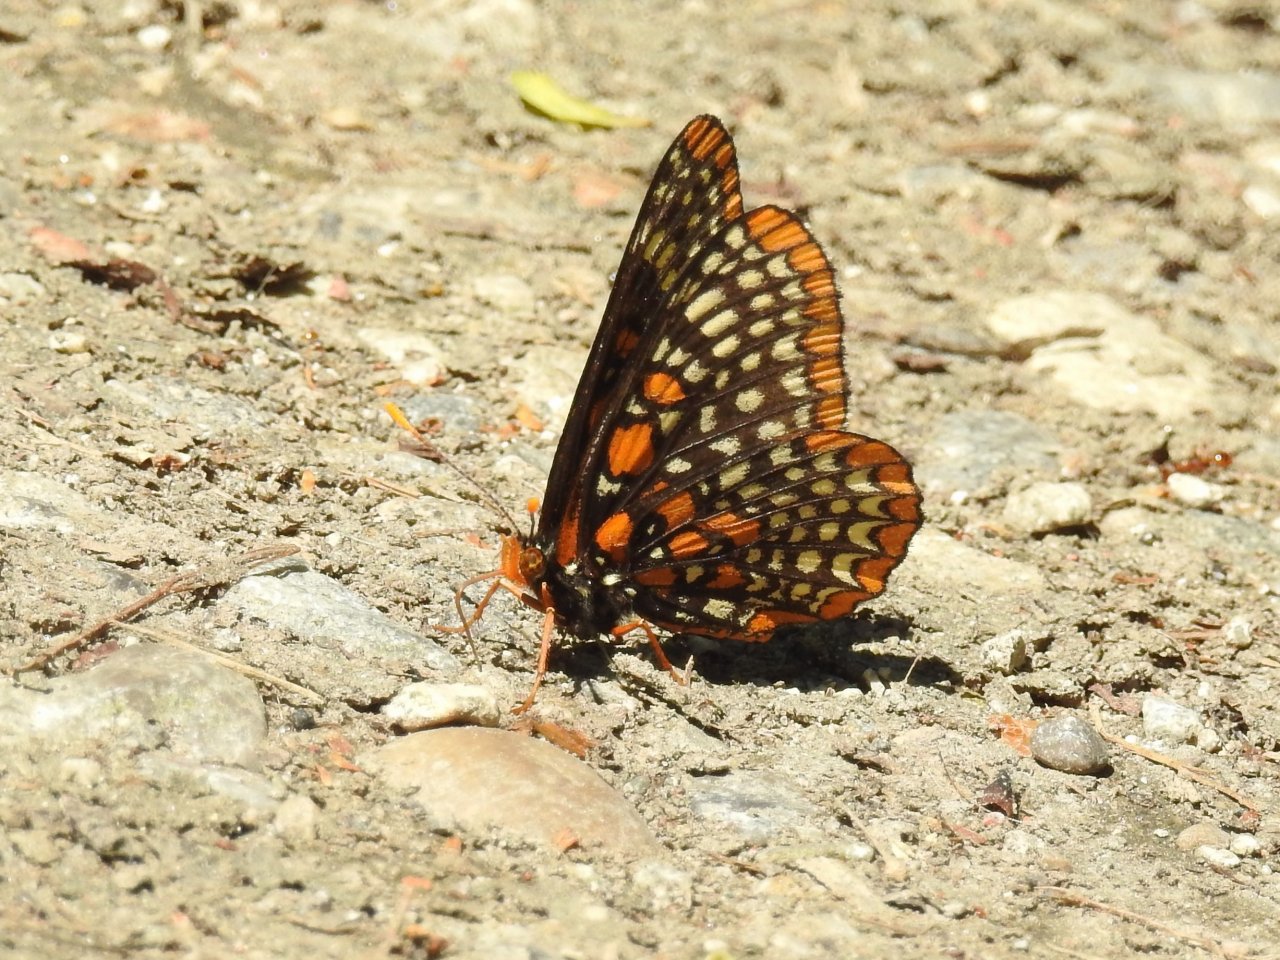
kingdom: Animalia
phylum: Arthropoda
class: Insecta
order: Lepidoptera
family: Nymphalidae
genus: Euphydryas
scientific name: Euphydryas phaeton
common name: Baltimore Checkerspot
